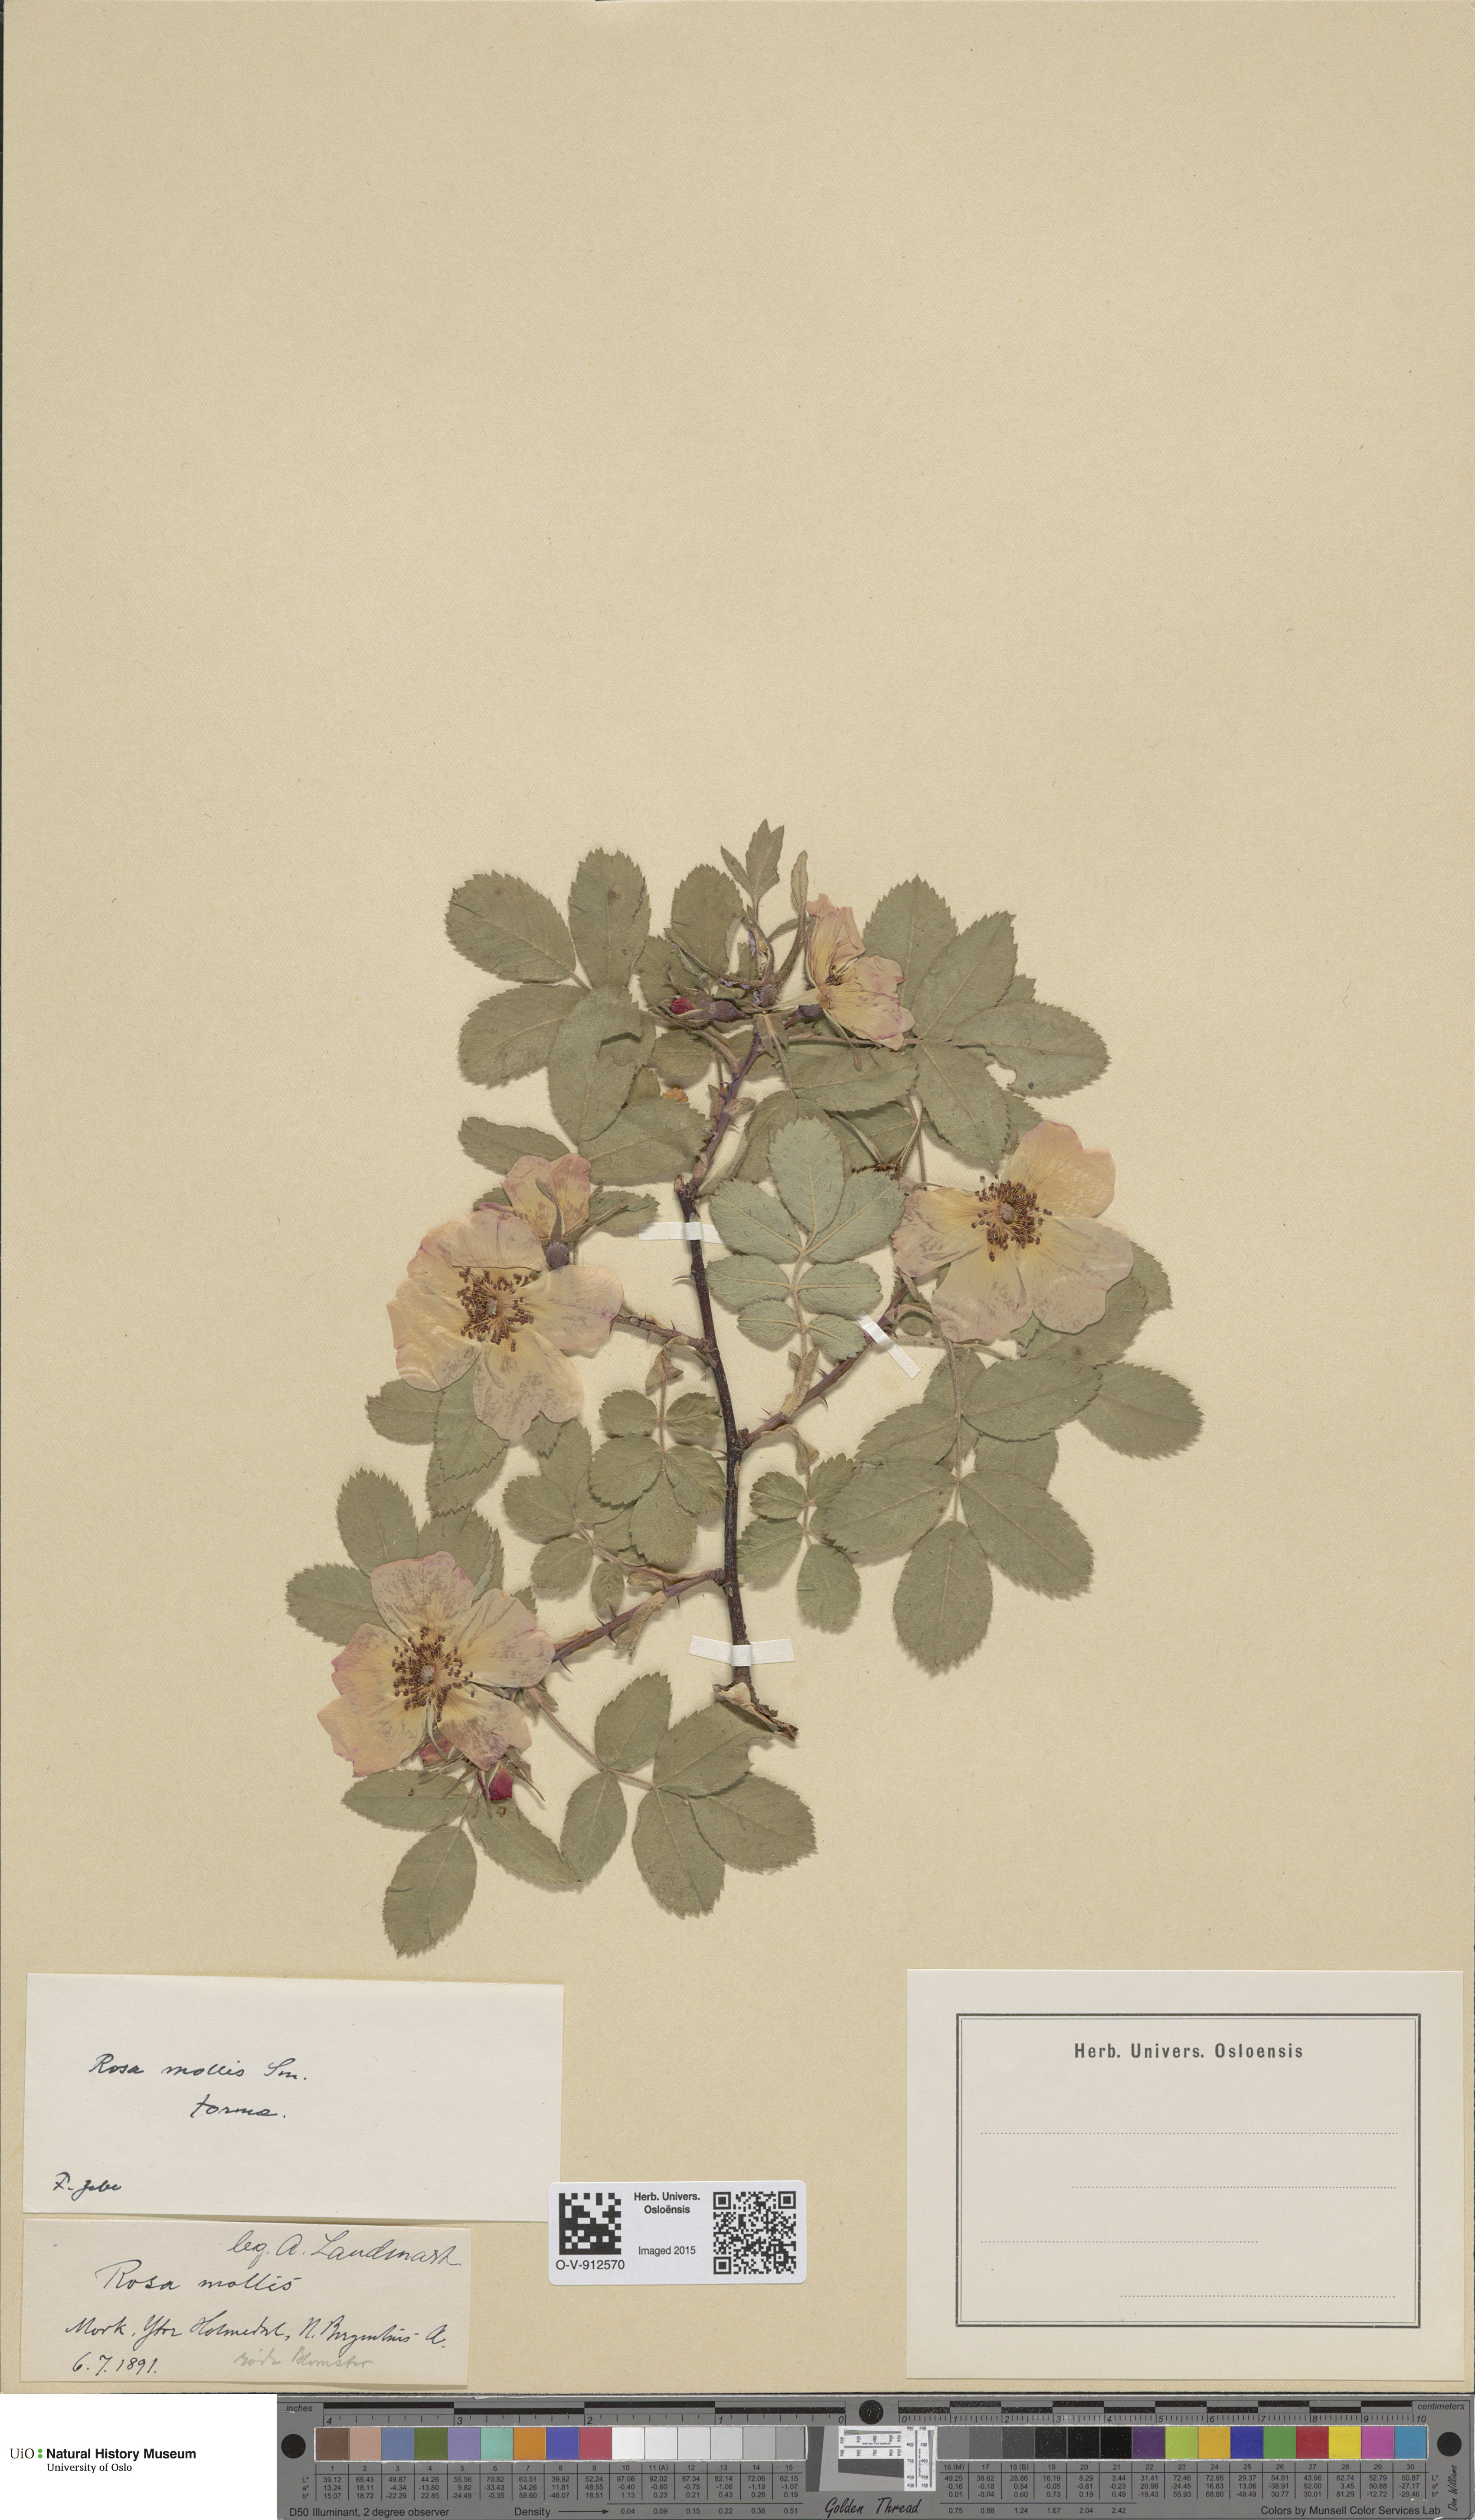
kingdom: Plantae
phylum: Tracheophyta
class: Magnoliopsida
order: Rosales
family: Rosaceae
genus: Rosa
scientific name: Rosa mollis
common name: Rose
